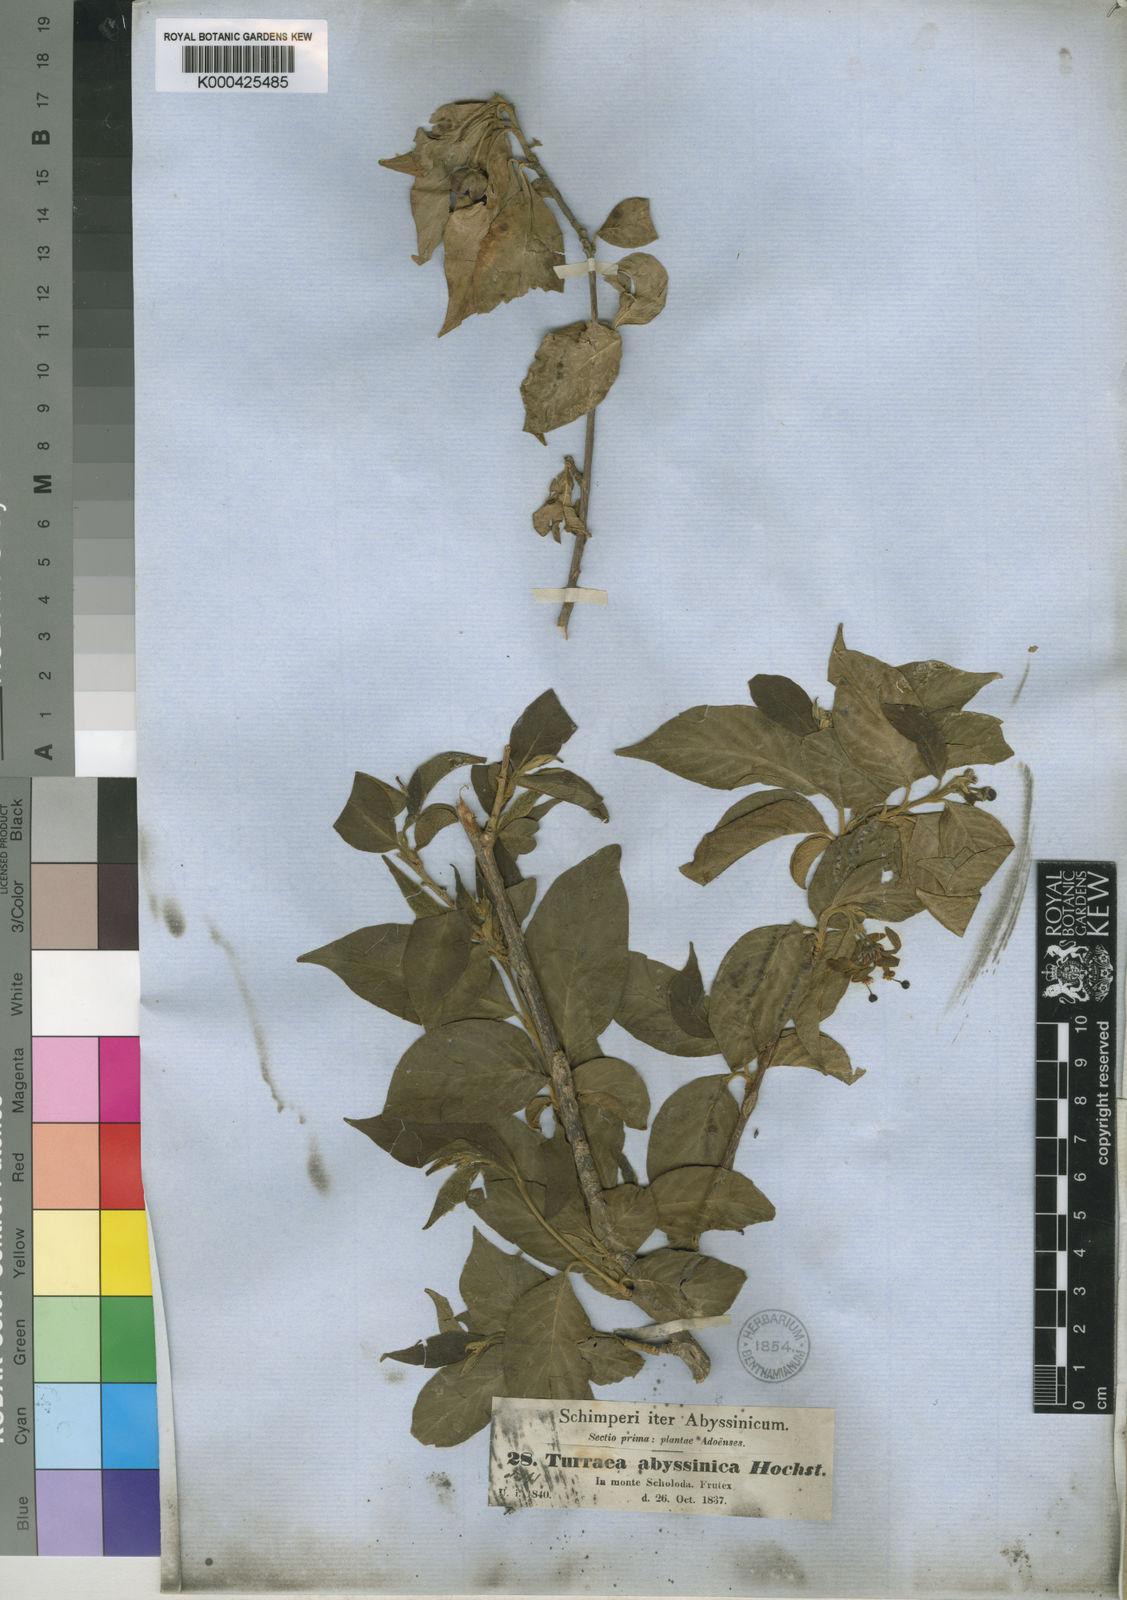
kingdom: Plantae
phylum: Tracheophyta
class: Magnoliopsida
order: Sapindales
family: Meliaceae
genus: Turraea
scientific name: Turraea
